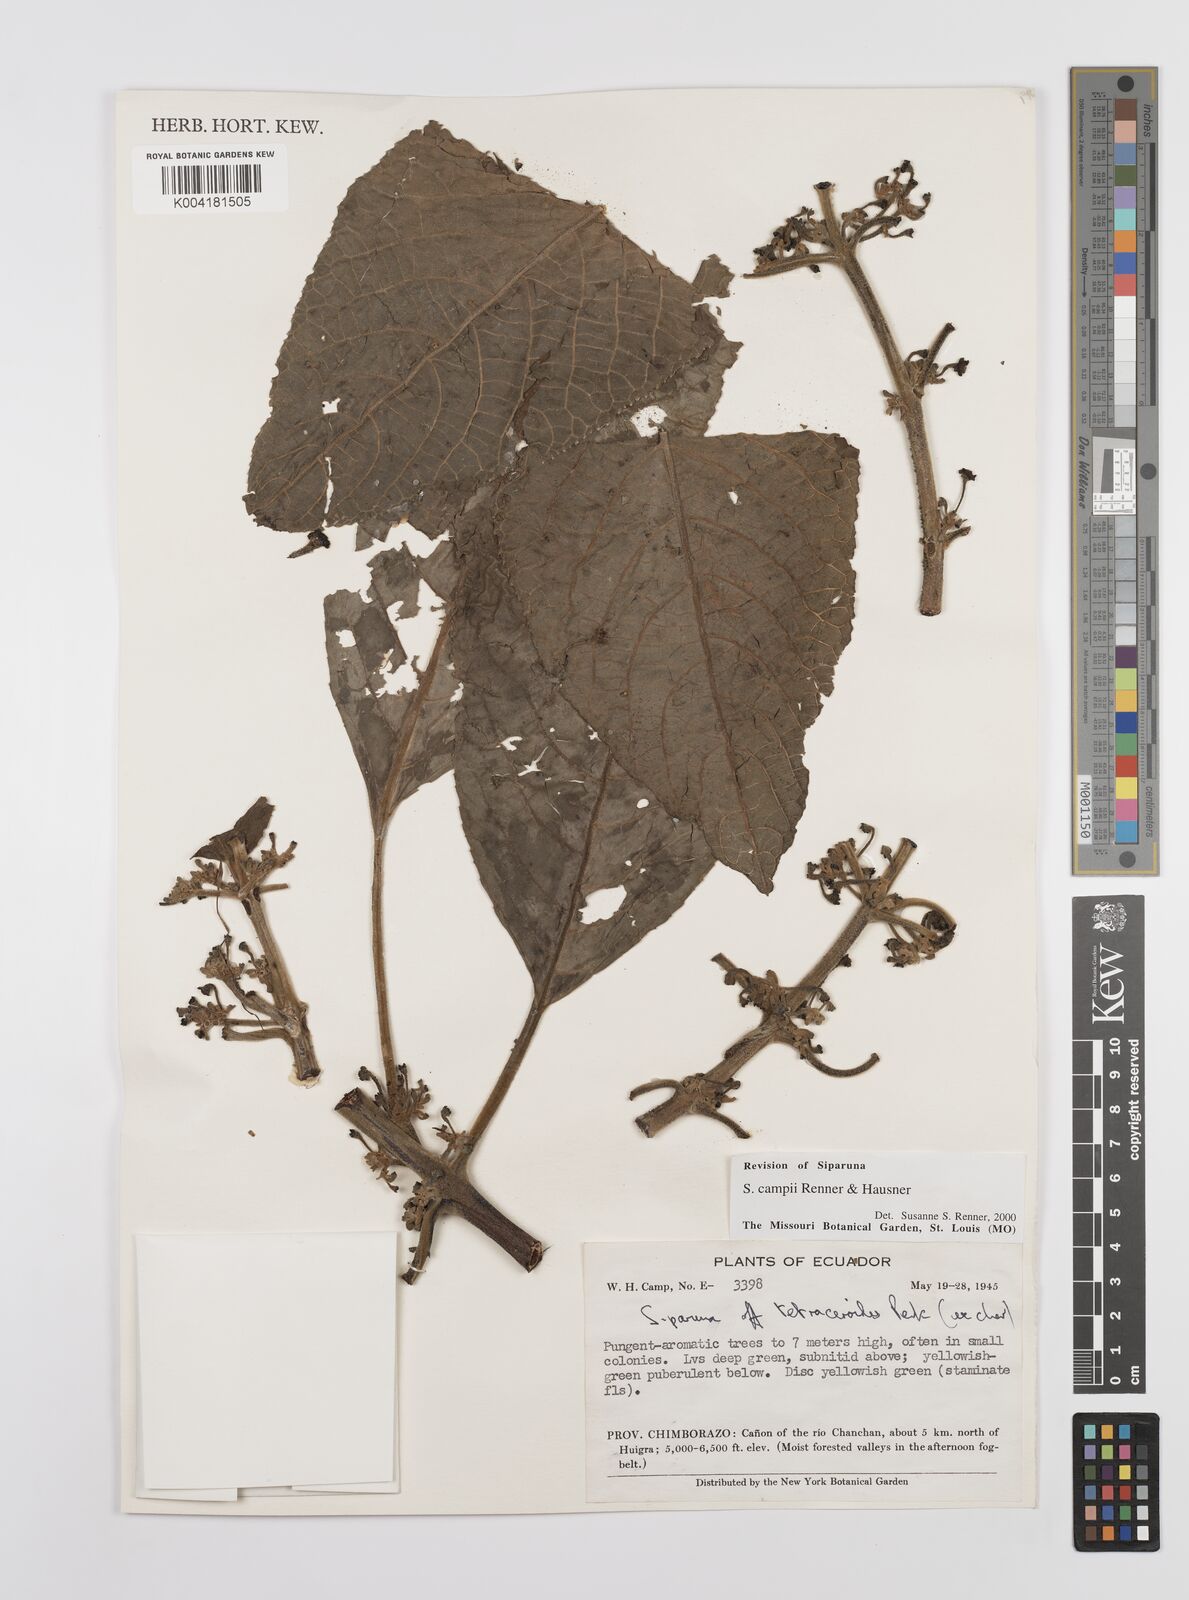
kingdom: Plantae
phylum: Tracheophyta
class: Magnoliopsida
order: Laurales
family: Siparunaceae
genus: Siparuna
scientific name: Siparuna campii
